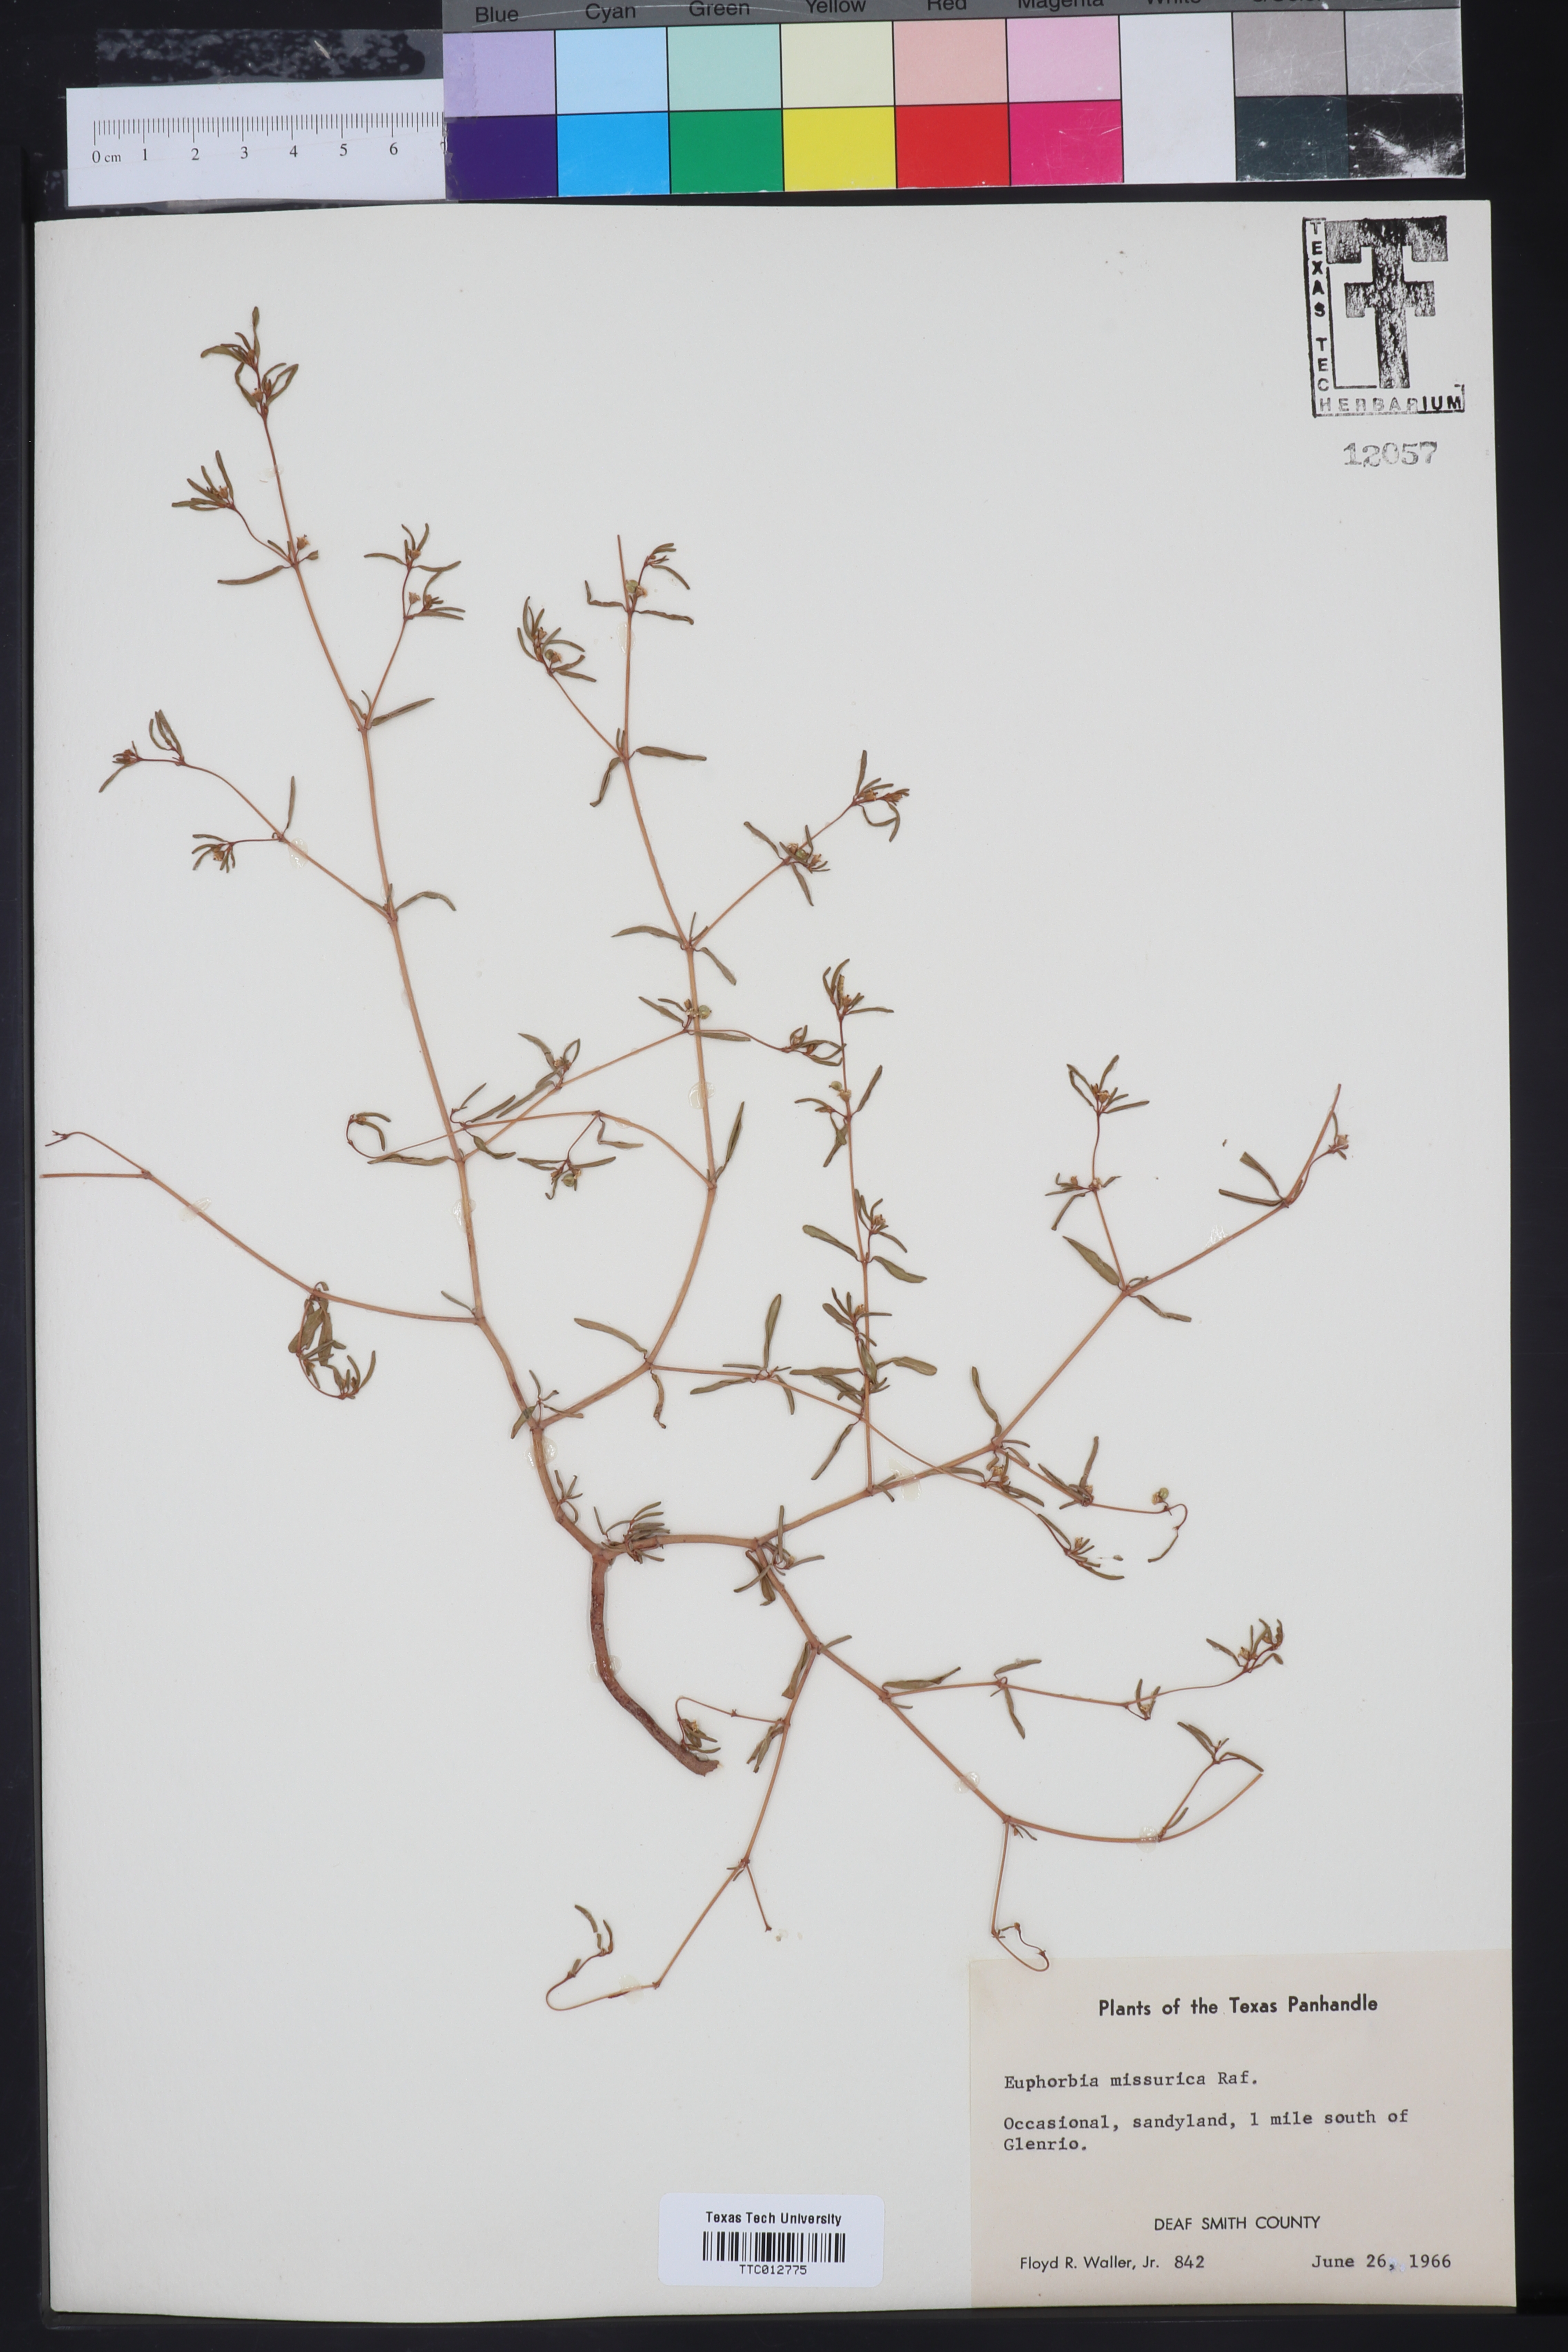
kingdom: Plantae
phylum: Tracheophyta
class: Magnoliopsida
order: Malpighiales
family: Euphorbiaceae
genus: Euphorbia
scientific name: Euphorbia missurica
